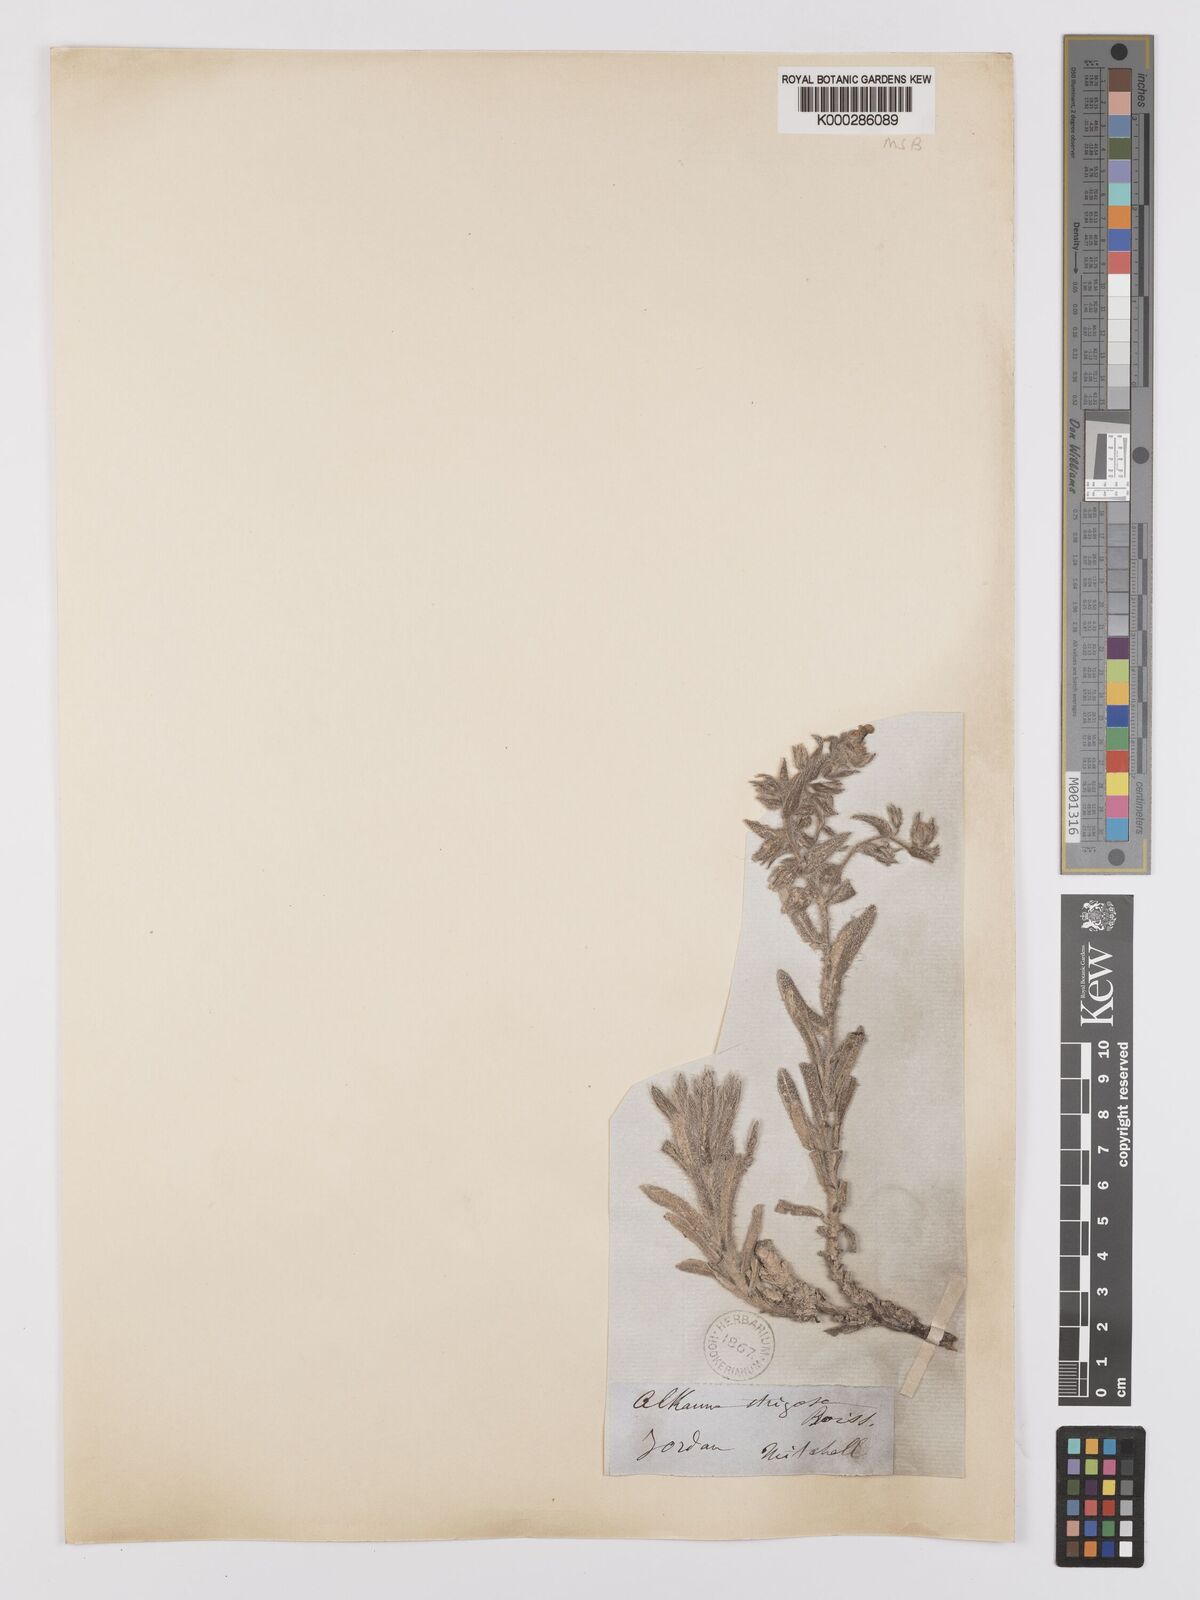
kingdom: Plantae
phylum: Tracheophyta
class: Magnoliopsida
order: Boraginales
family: Boraginaceae
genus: Alkanna
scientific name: Alkanna strigosa
